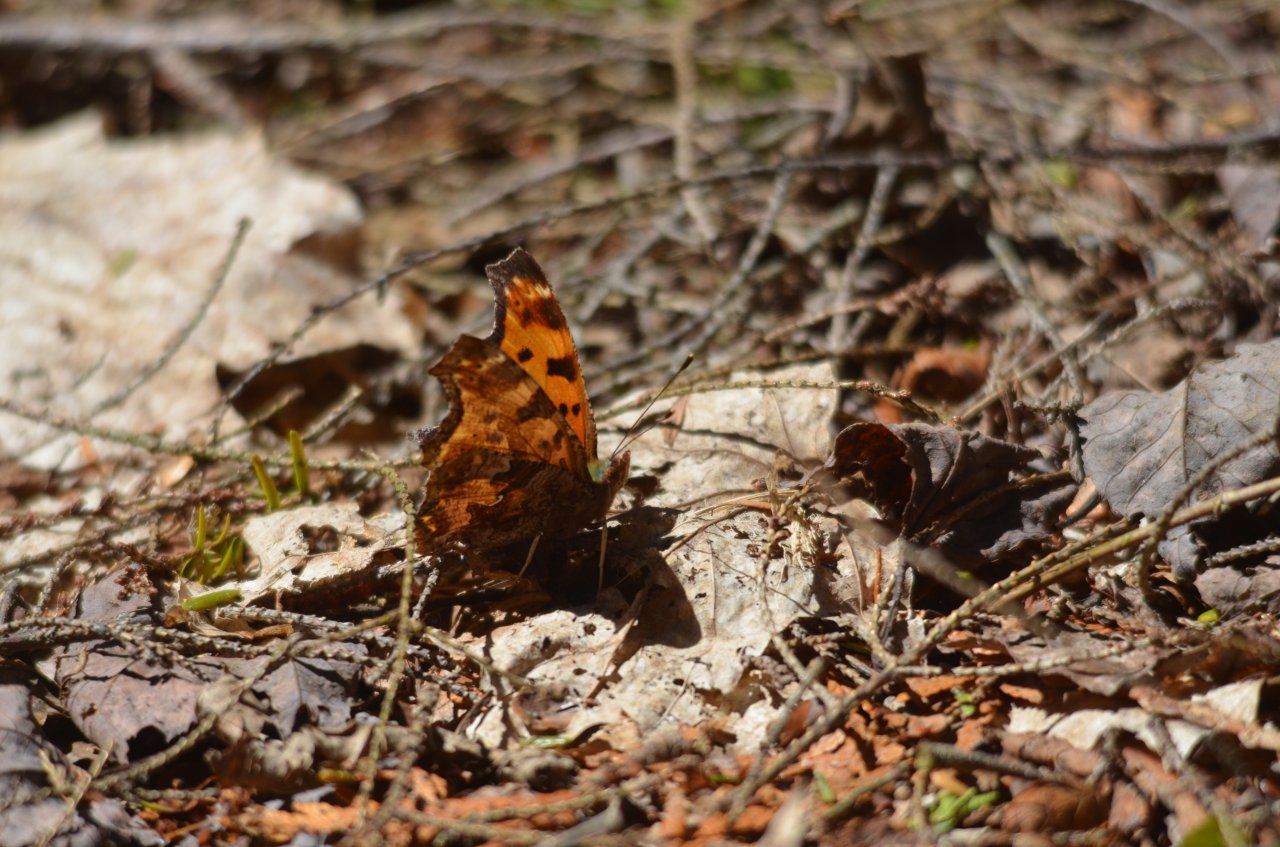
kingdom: Animalia
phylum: Arthropoda
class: Insecta
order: Lepidoptera
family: Nymphalidae
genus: Polygonia
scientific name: Polygonia comma
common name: Eastern Comma
